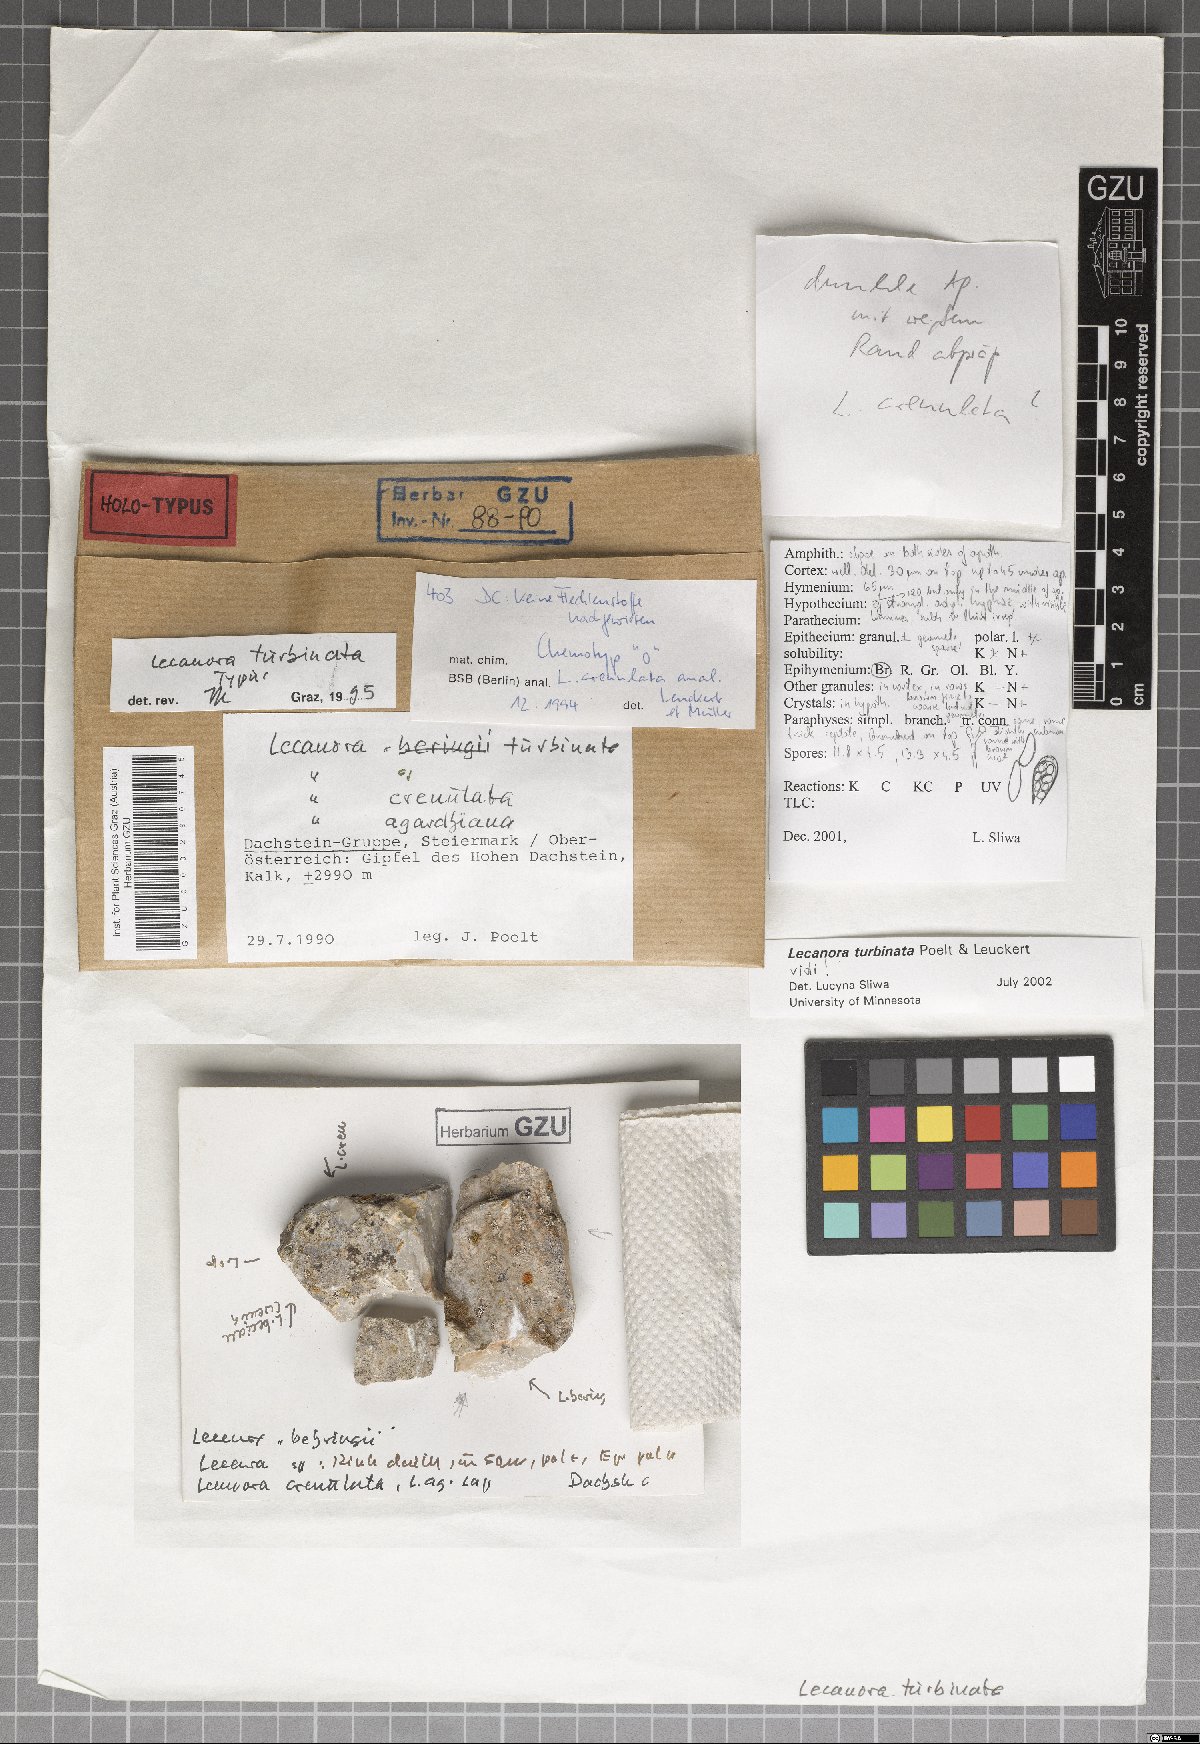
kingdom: Fungi
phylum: Ascomycota
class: Lecanoromycetes
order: Lecanorales
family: Lecanoraceae
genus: Lecanora
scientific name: Lecanora
